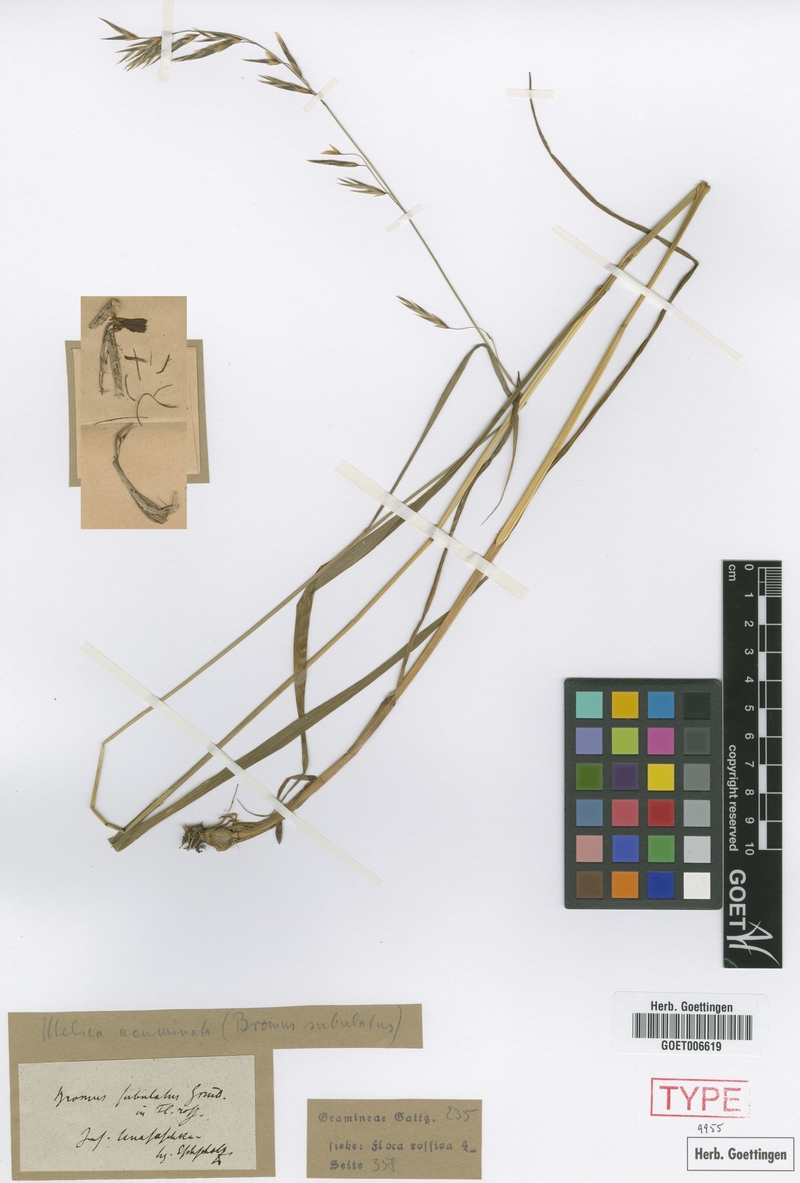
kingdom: Plantae
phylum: Tracheophyta
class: Liliopsida
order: Poales
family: Poaceae
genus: Melica
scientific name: Melica subulata
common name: Tapered oniongrass
